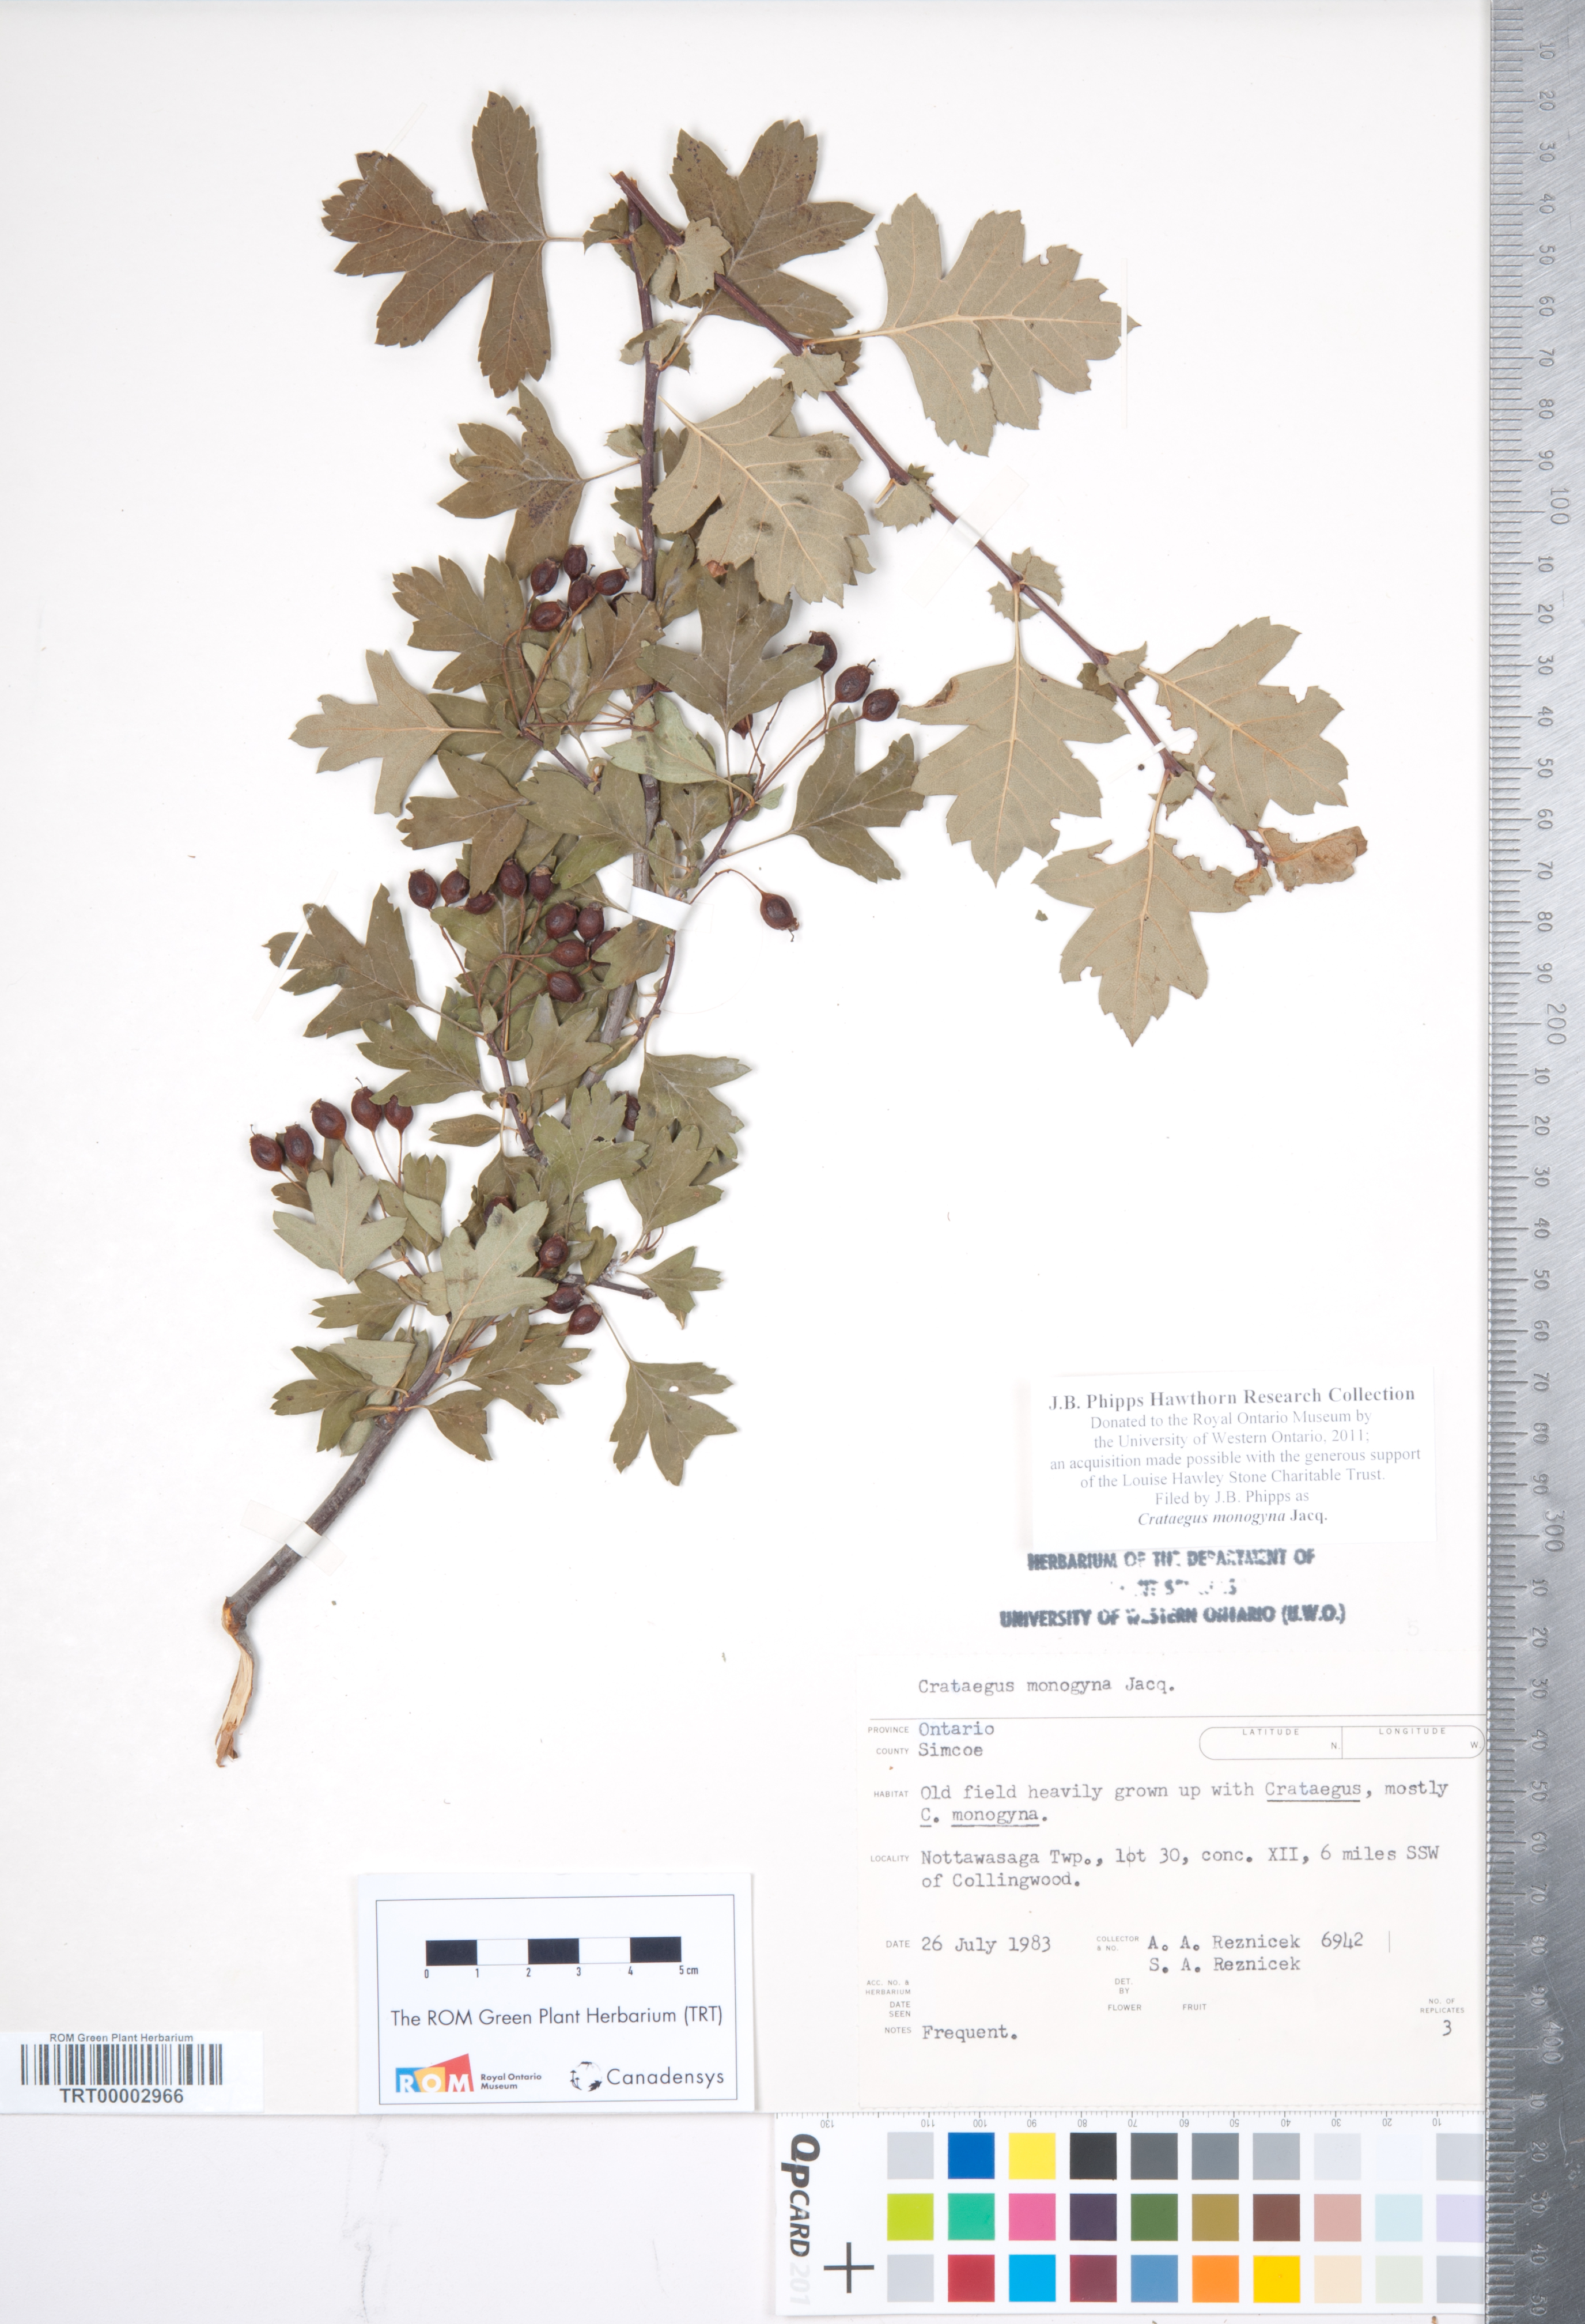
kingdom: Plantae
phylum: Tracheophyta
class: Magnoliopsida
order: Rosales
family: Rosaceae
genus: Crataegus
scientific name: Crataegus monogyna
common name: Hawthorn
